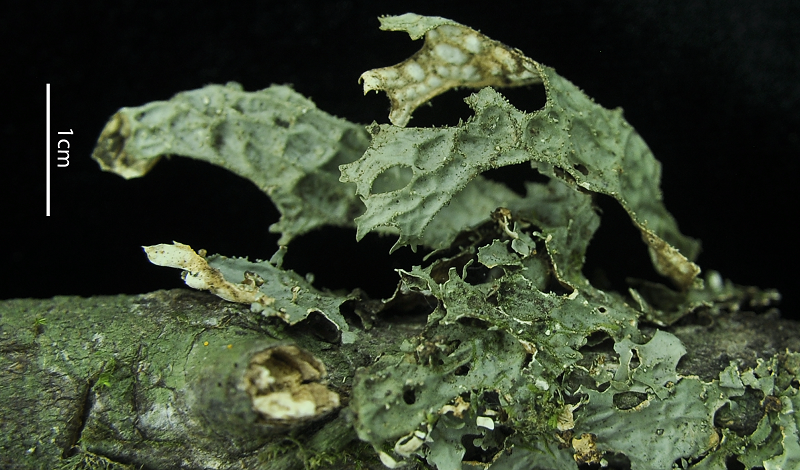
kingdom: Fungi
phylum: Ascomycota
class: Lecanoromycetes
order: Peltigerales
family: Lobariaceae
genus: Lobaria
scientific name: Lobaria
